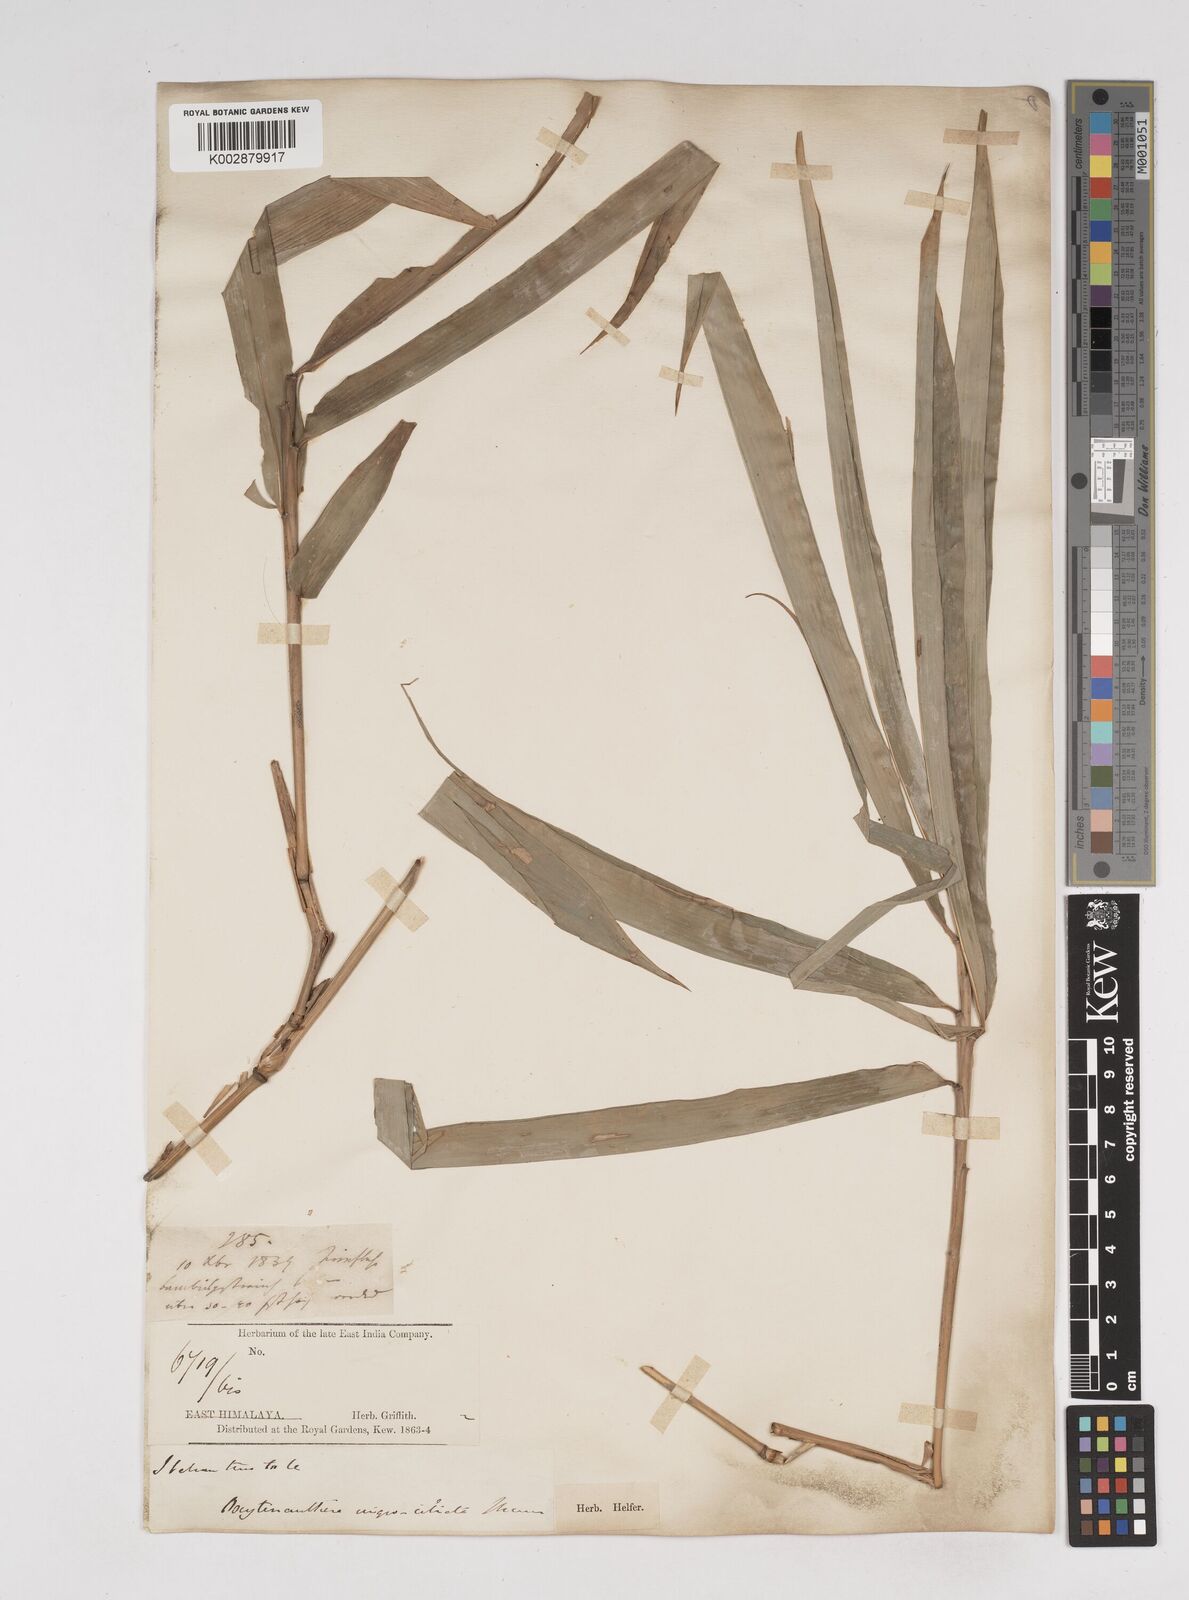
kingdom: Plantae
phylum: Tracheophyta
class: Liliopsida
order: Poales
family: Poaceae
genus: Gigantochloa
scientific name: Gigantochloa nigrociliata
